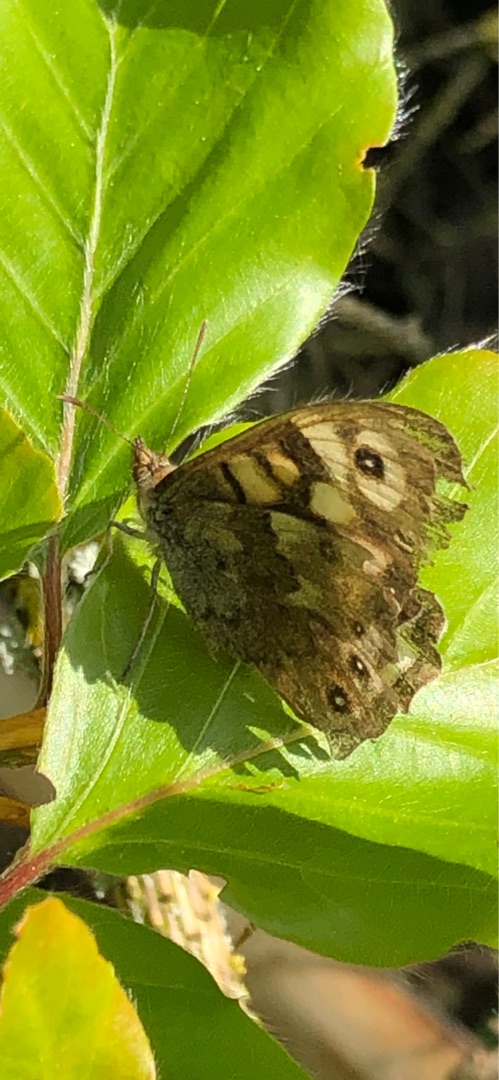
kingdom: Animalia
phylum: Arthropoda
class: Insecta
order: Lepidoptera
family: Nymphalidae
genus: Pararge
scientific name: Pararge aegeria
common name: Skovrandøje
